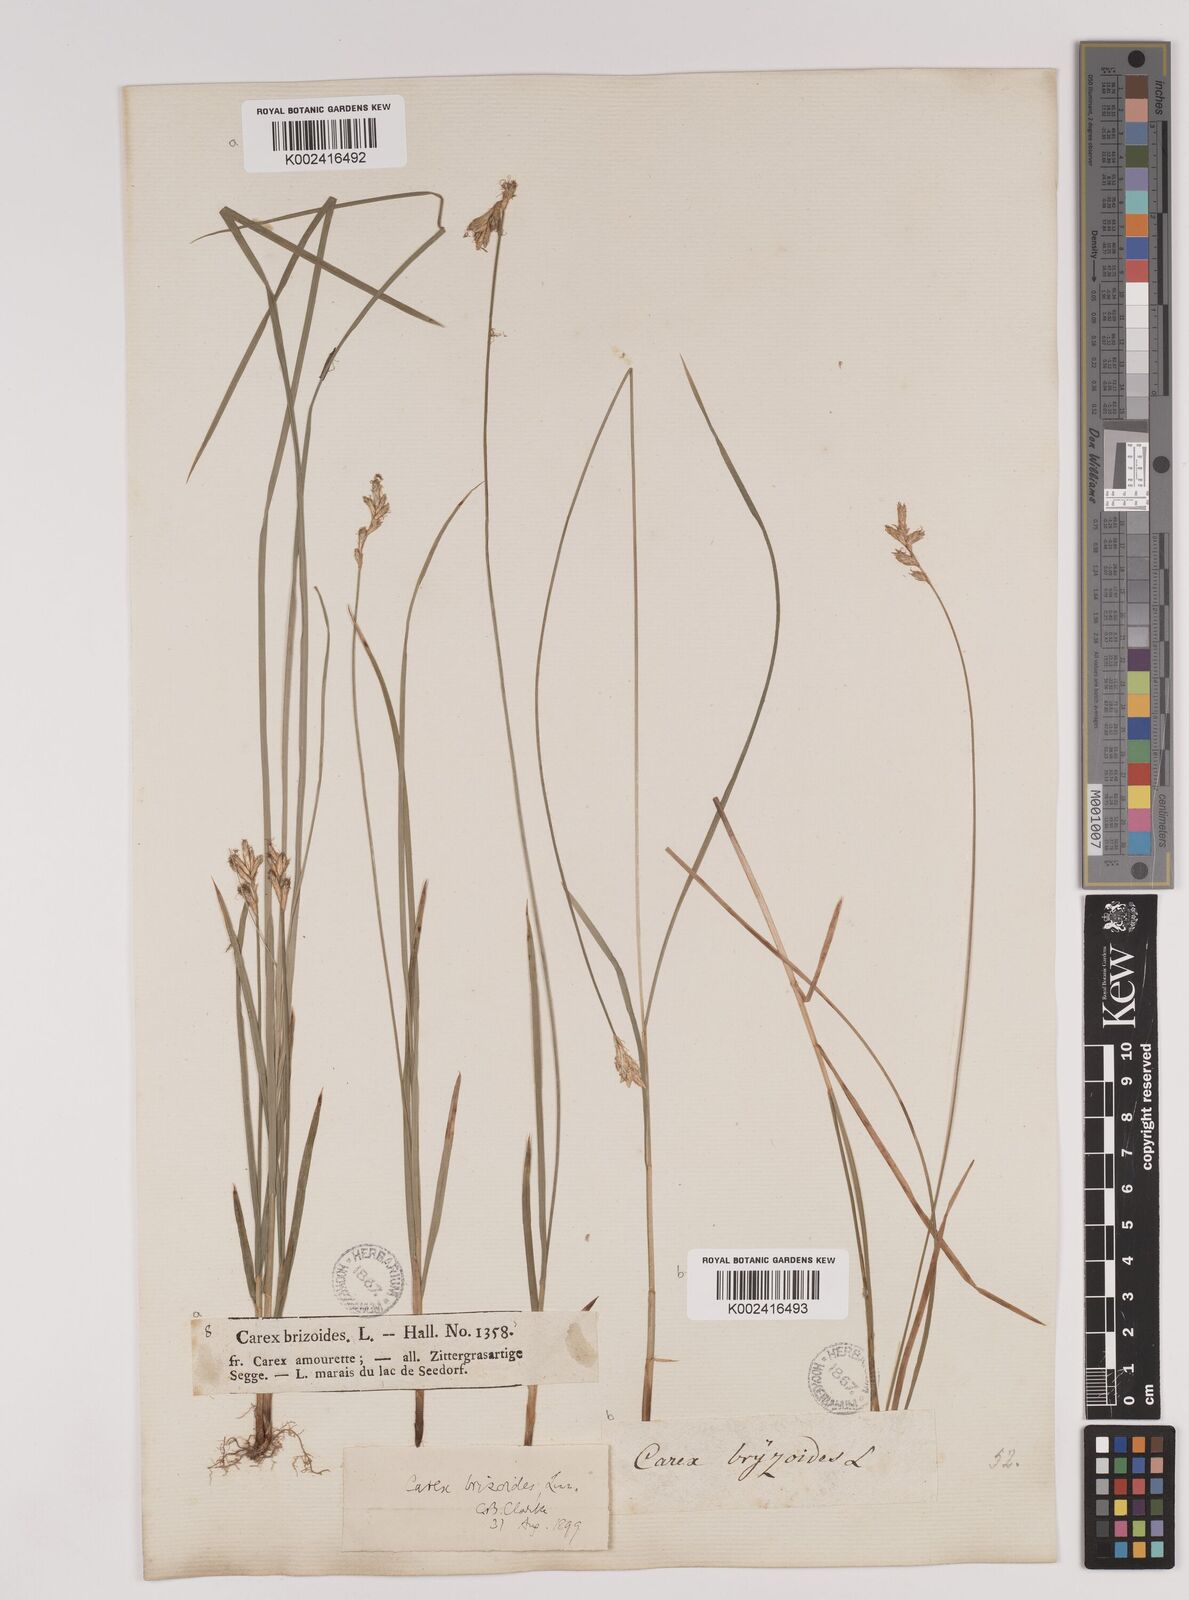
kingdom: Plantae
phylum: Tracheophyta
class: Liliopsida
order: Poales
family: Cyperaceae
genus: Carex
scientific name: Carex brizoides
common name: Quaking-grass sedge
